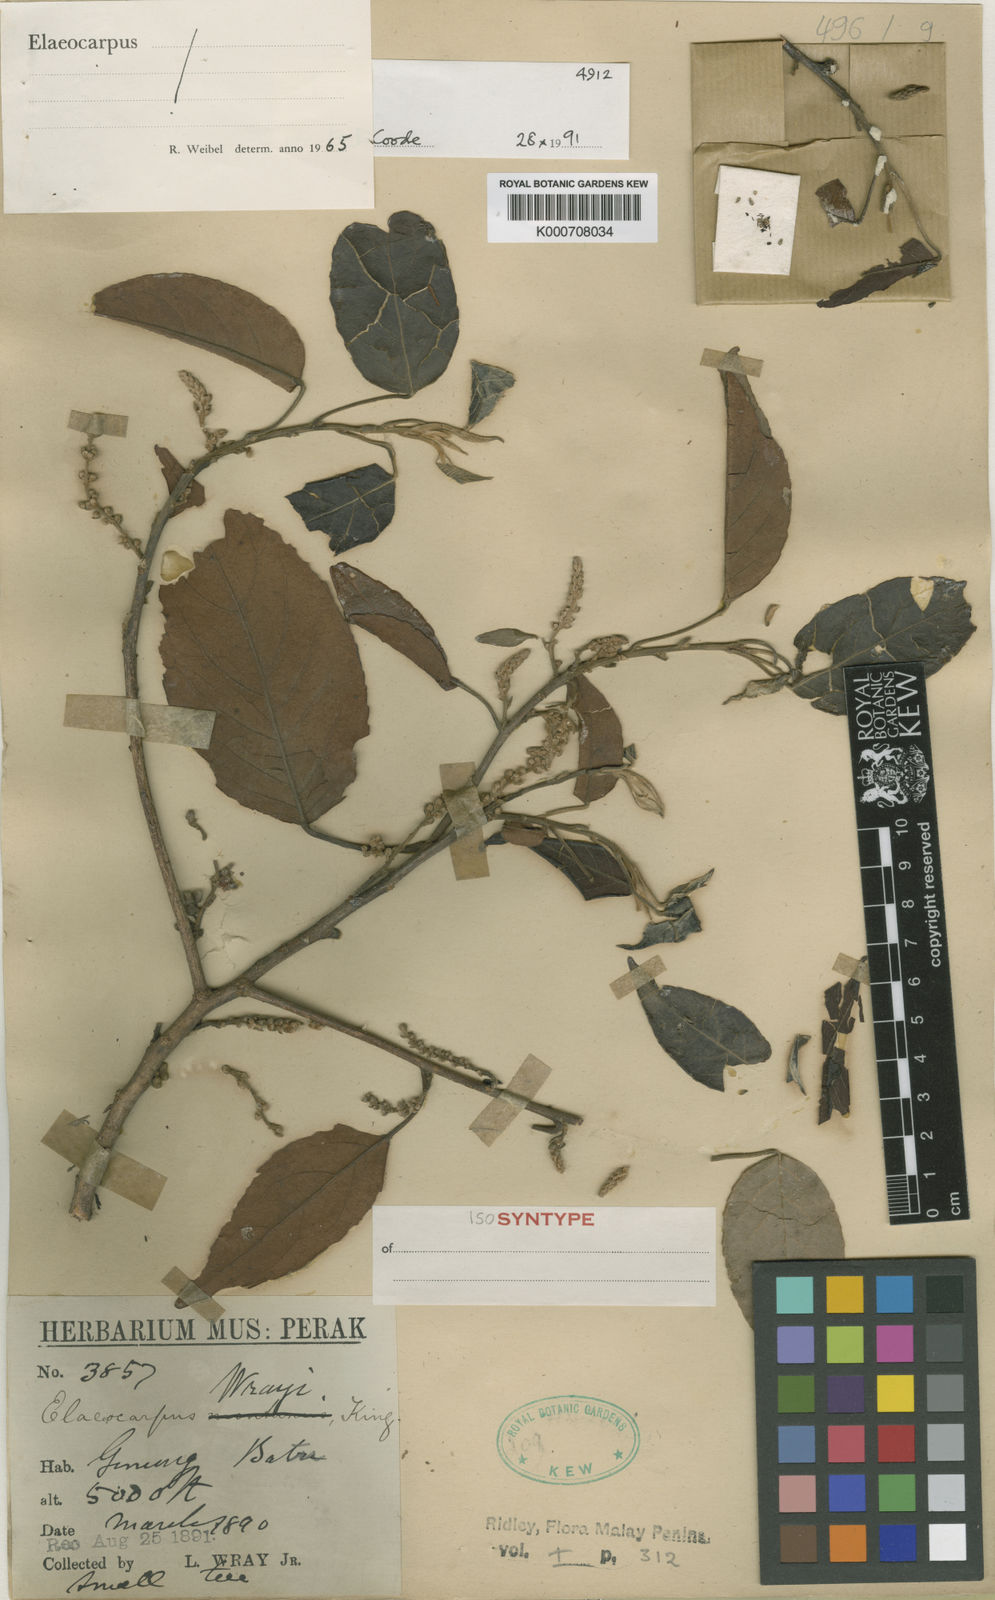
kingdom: Plantae
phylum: Tracheophyta
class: Magnoliopsida
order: Oxalidales
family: Elaeocarpaceae
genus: Elaeocarpus
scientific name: Elaeocarpus nitidus
